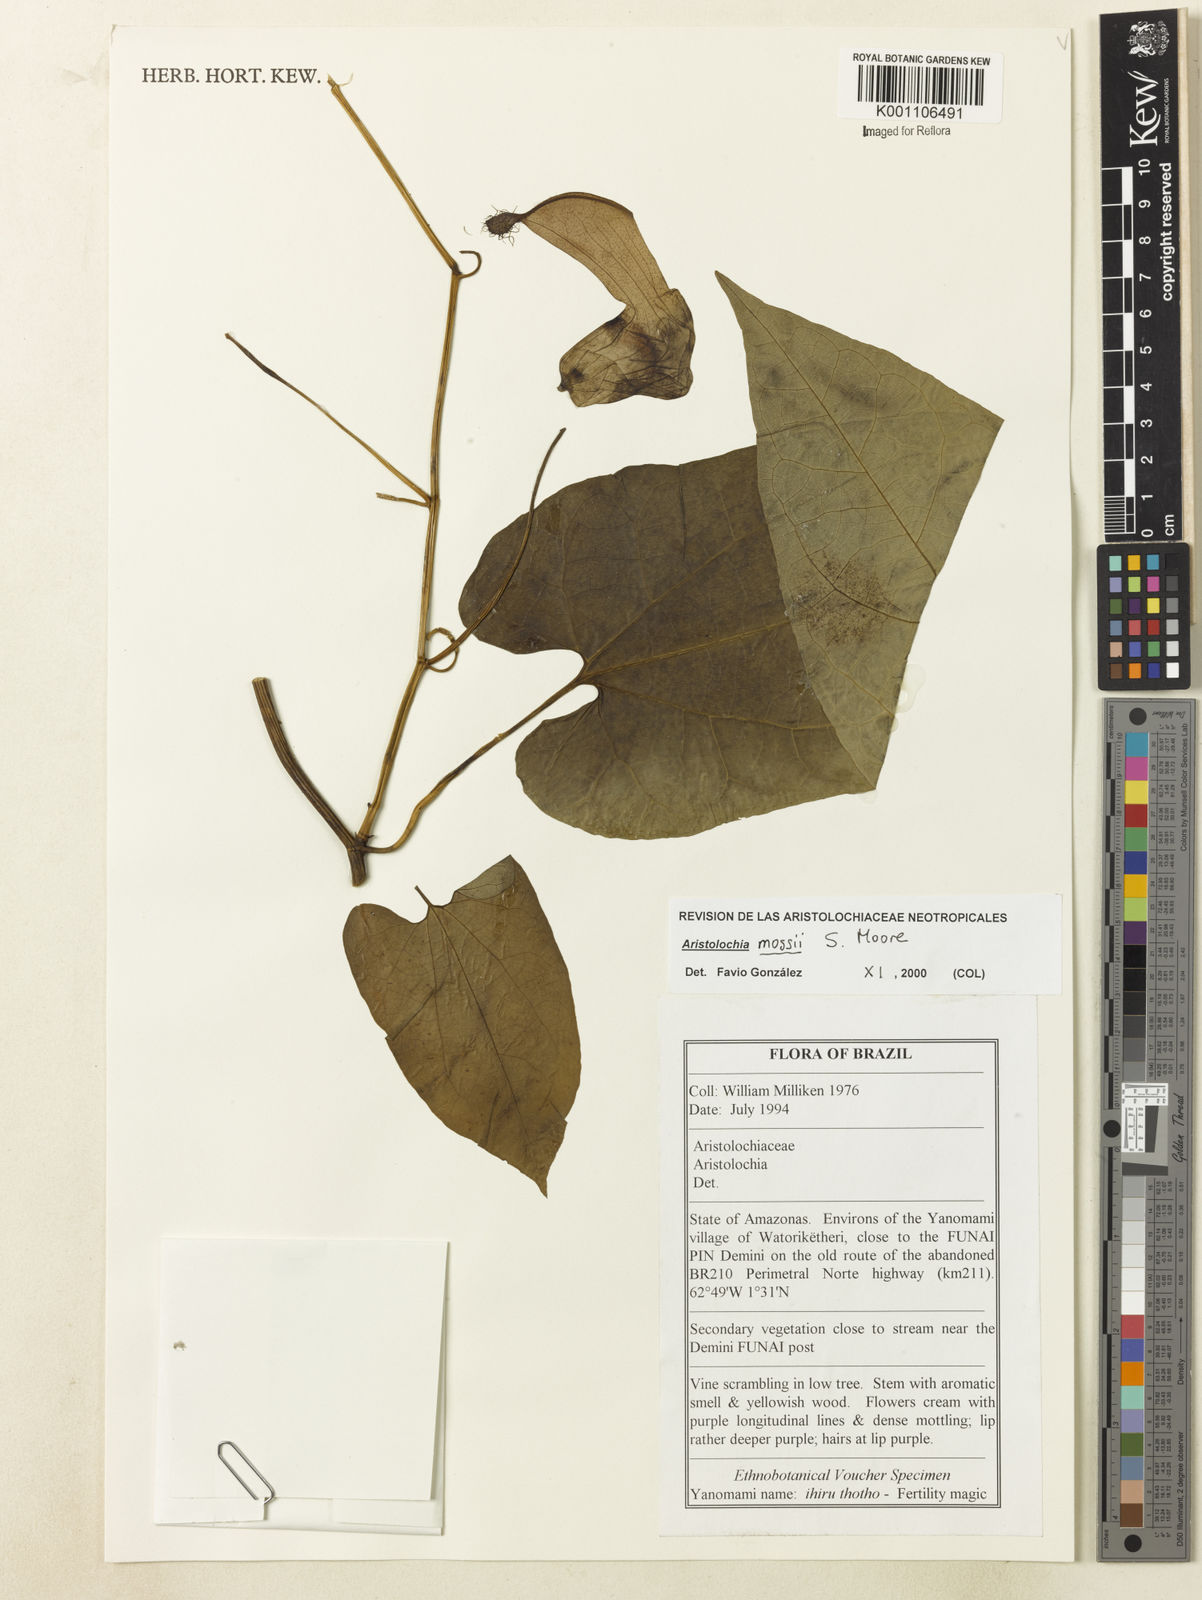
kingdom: Plantae
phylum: Tracheophyta
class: Magnoliopsida
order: Piperales
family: Aristolochiaceae
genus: Aristolochia
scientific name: Aristolochia mossii
